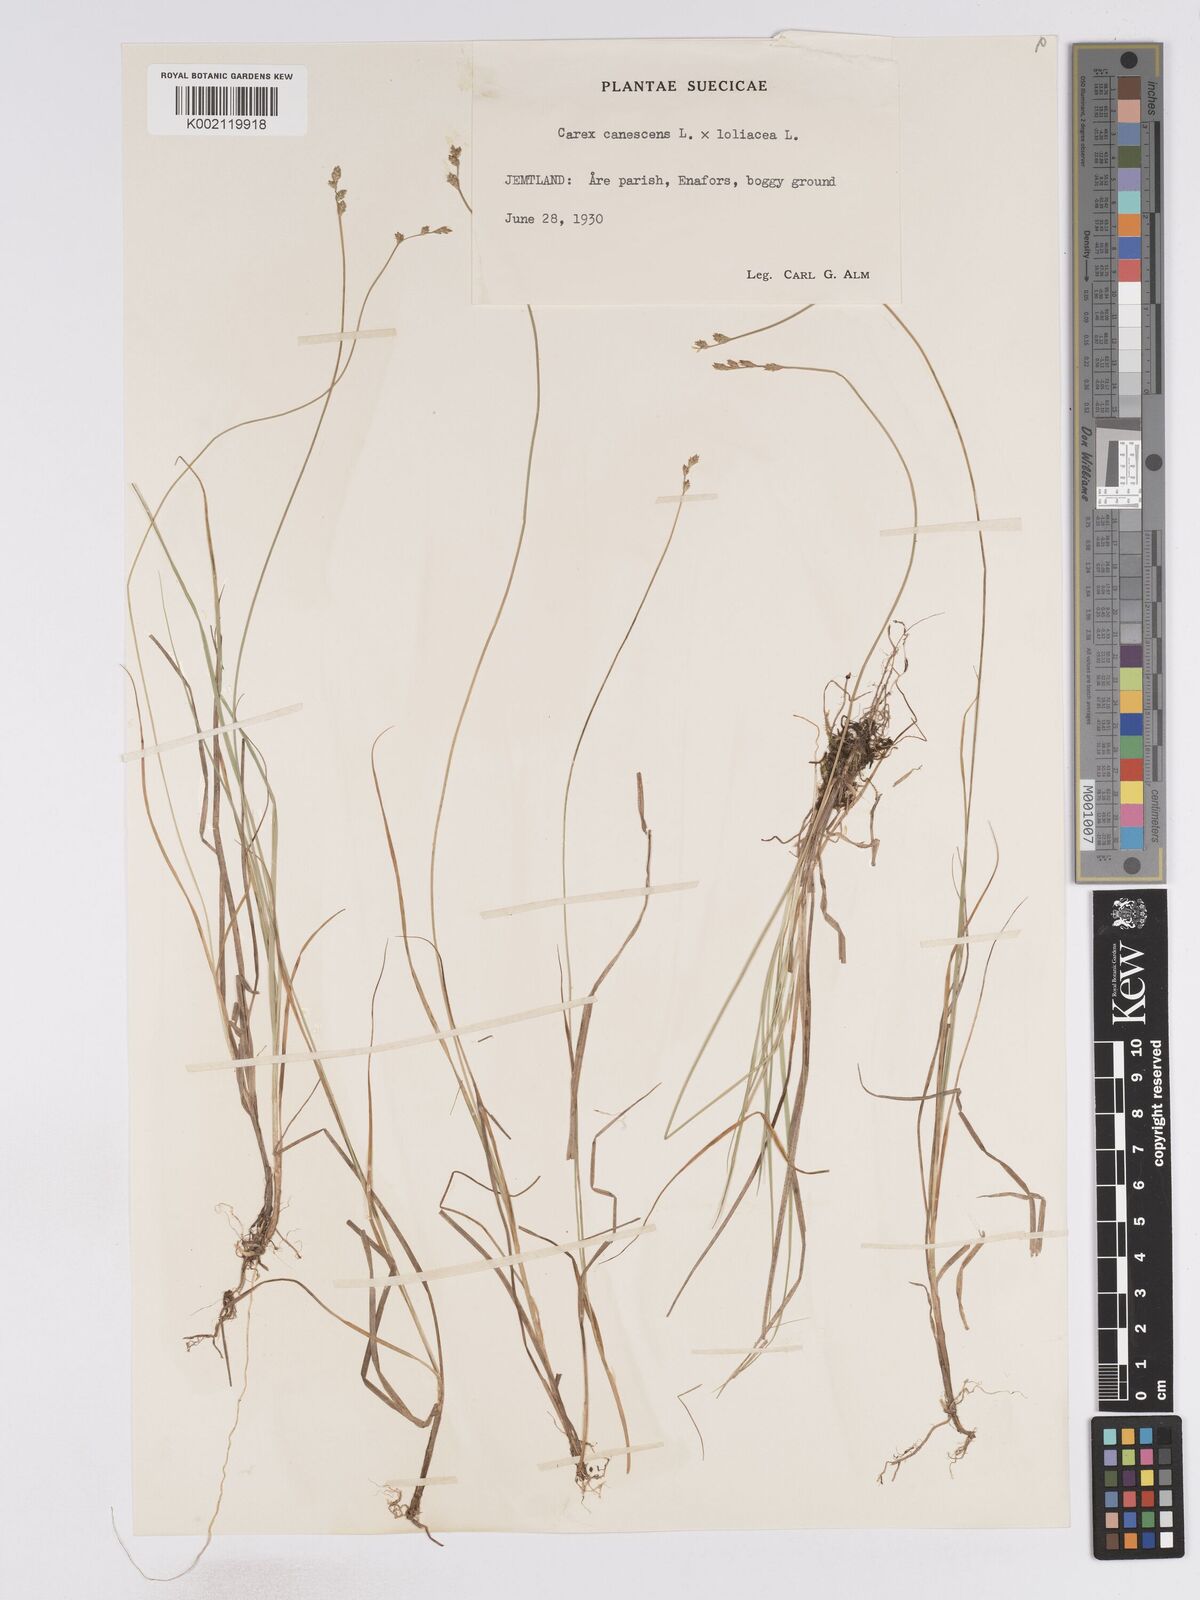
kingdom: Plantae
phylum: Tracheophyta
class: Liliopsida
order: Poales
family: Cyperaceae
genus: Carex
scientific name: Carex curta
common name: White sedge
